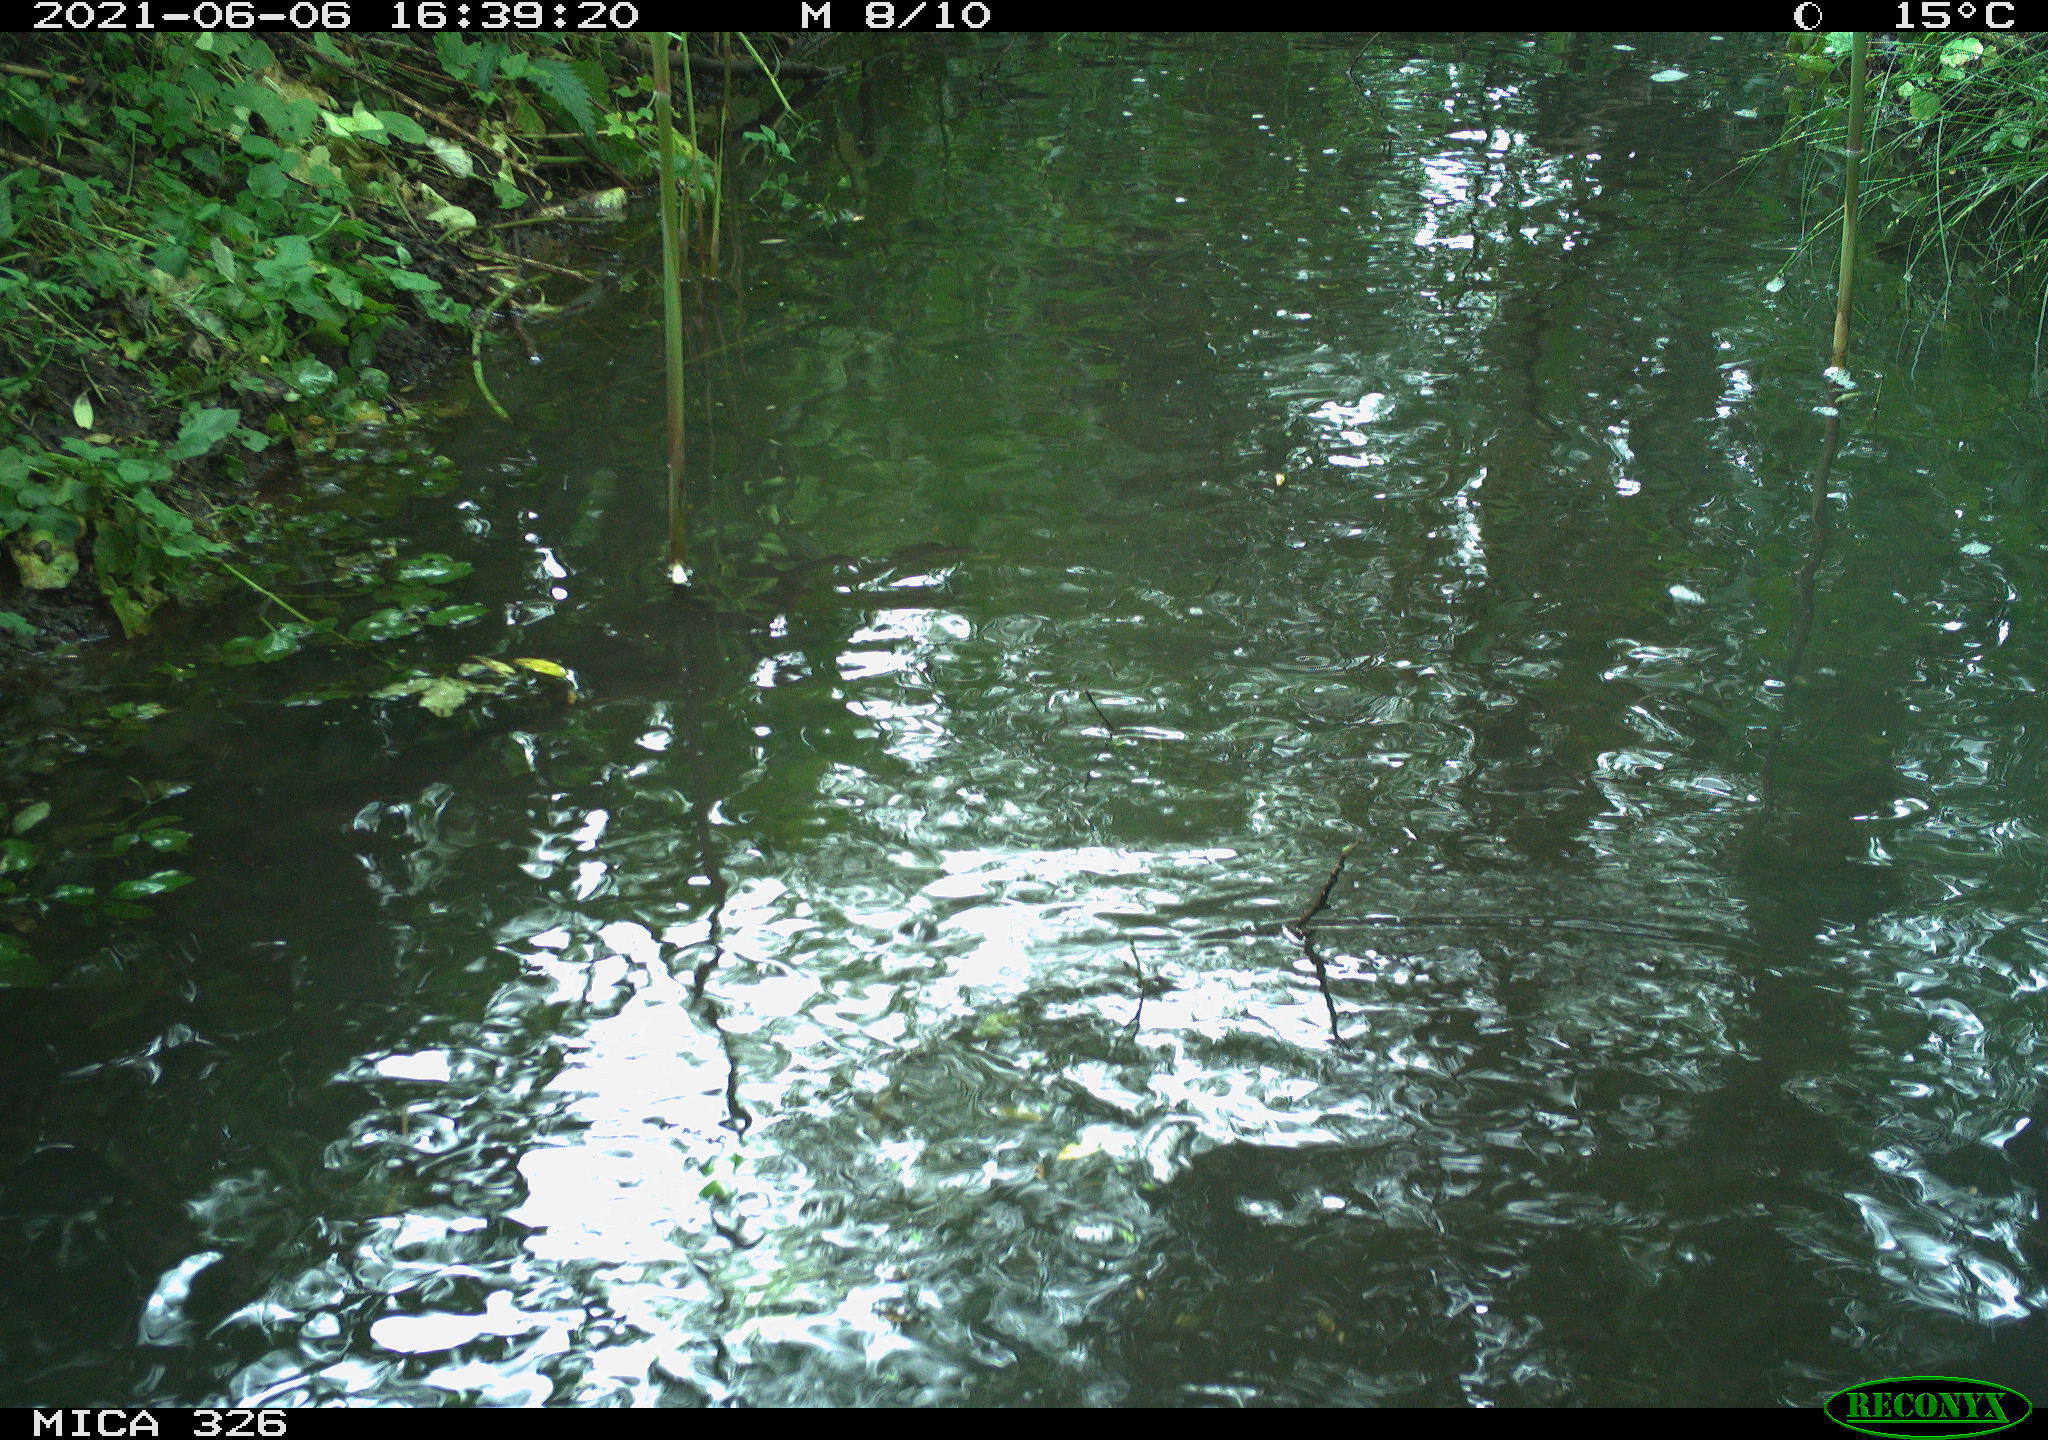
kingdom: Animalia
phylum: Chordata
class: Aves
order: Anseriformes
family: Anatidae
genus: Anas
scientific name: Anas platyrhynchos
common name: Mallard
